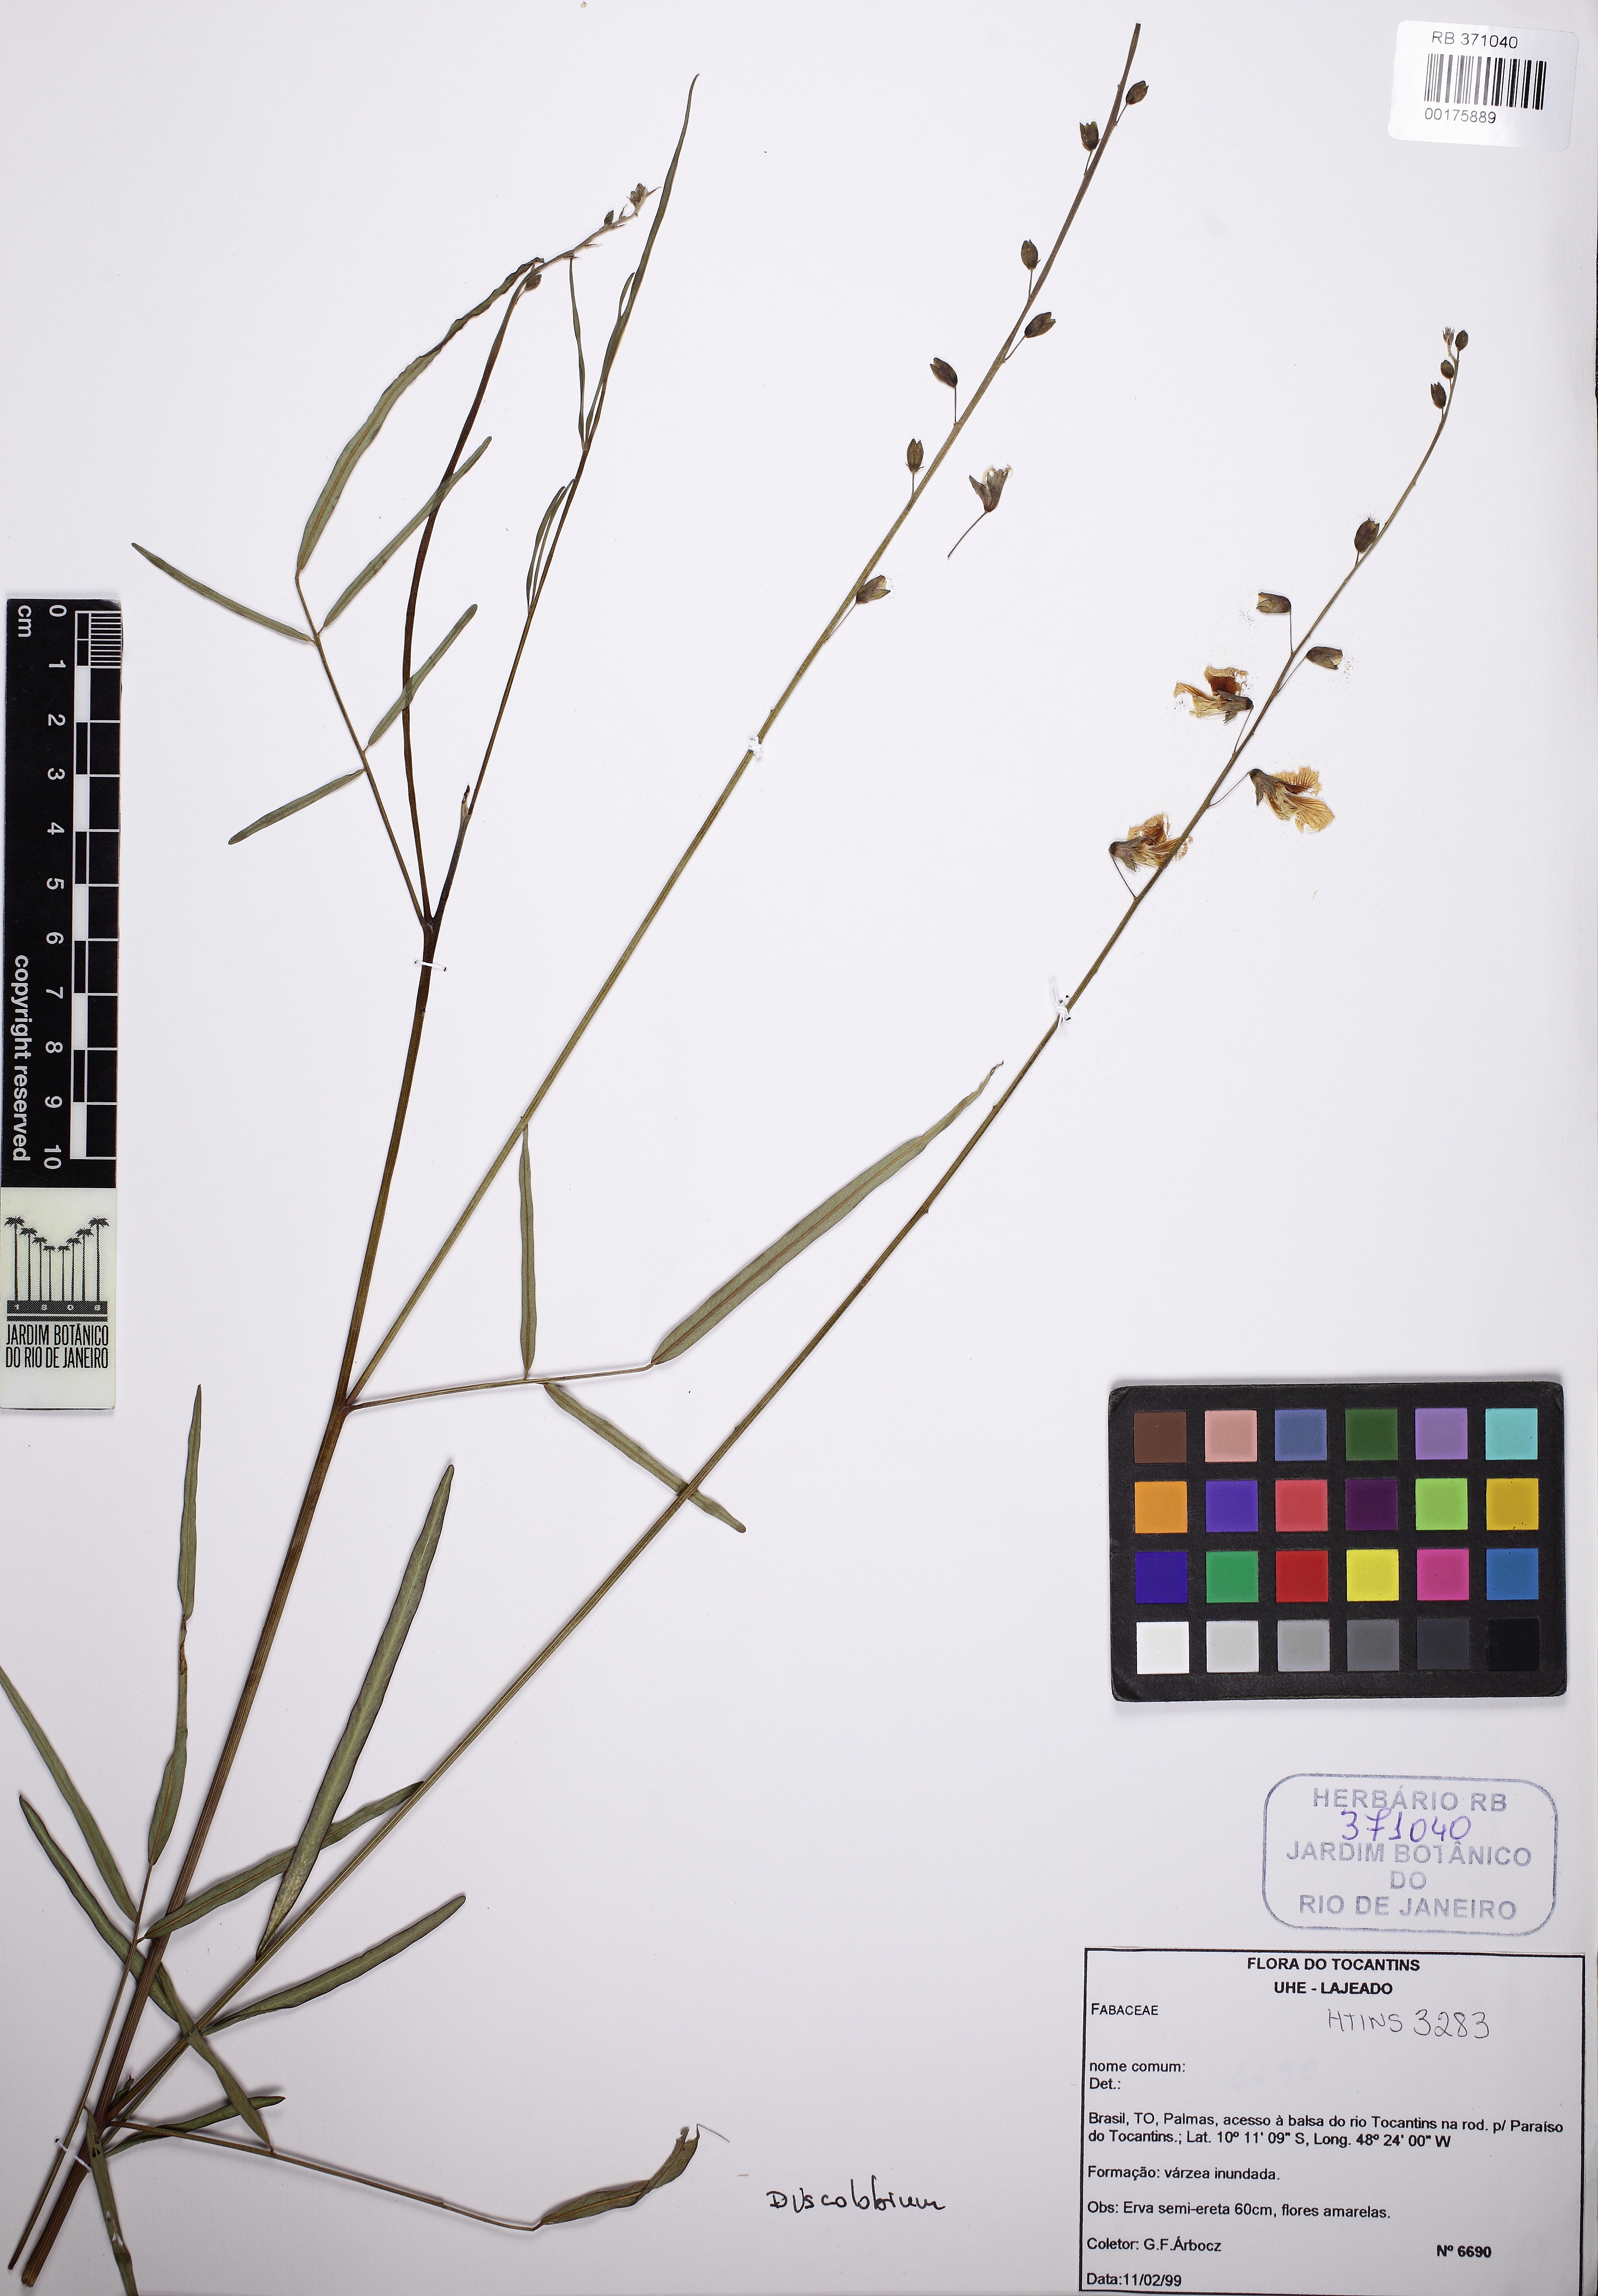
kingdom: Plantae
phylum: Tracheophyta
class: Magnoliopsida
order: Fabales
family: Fabaceae
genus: Discolobium
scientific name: Discolobium leptophyllum
